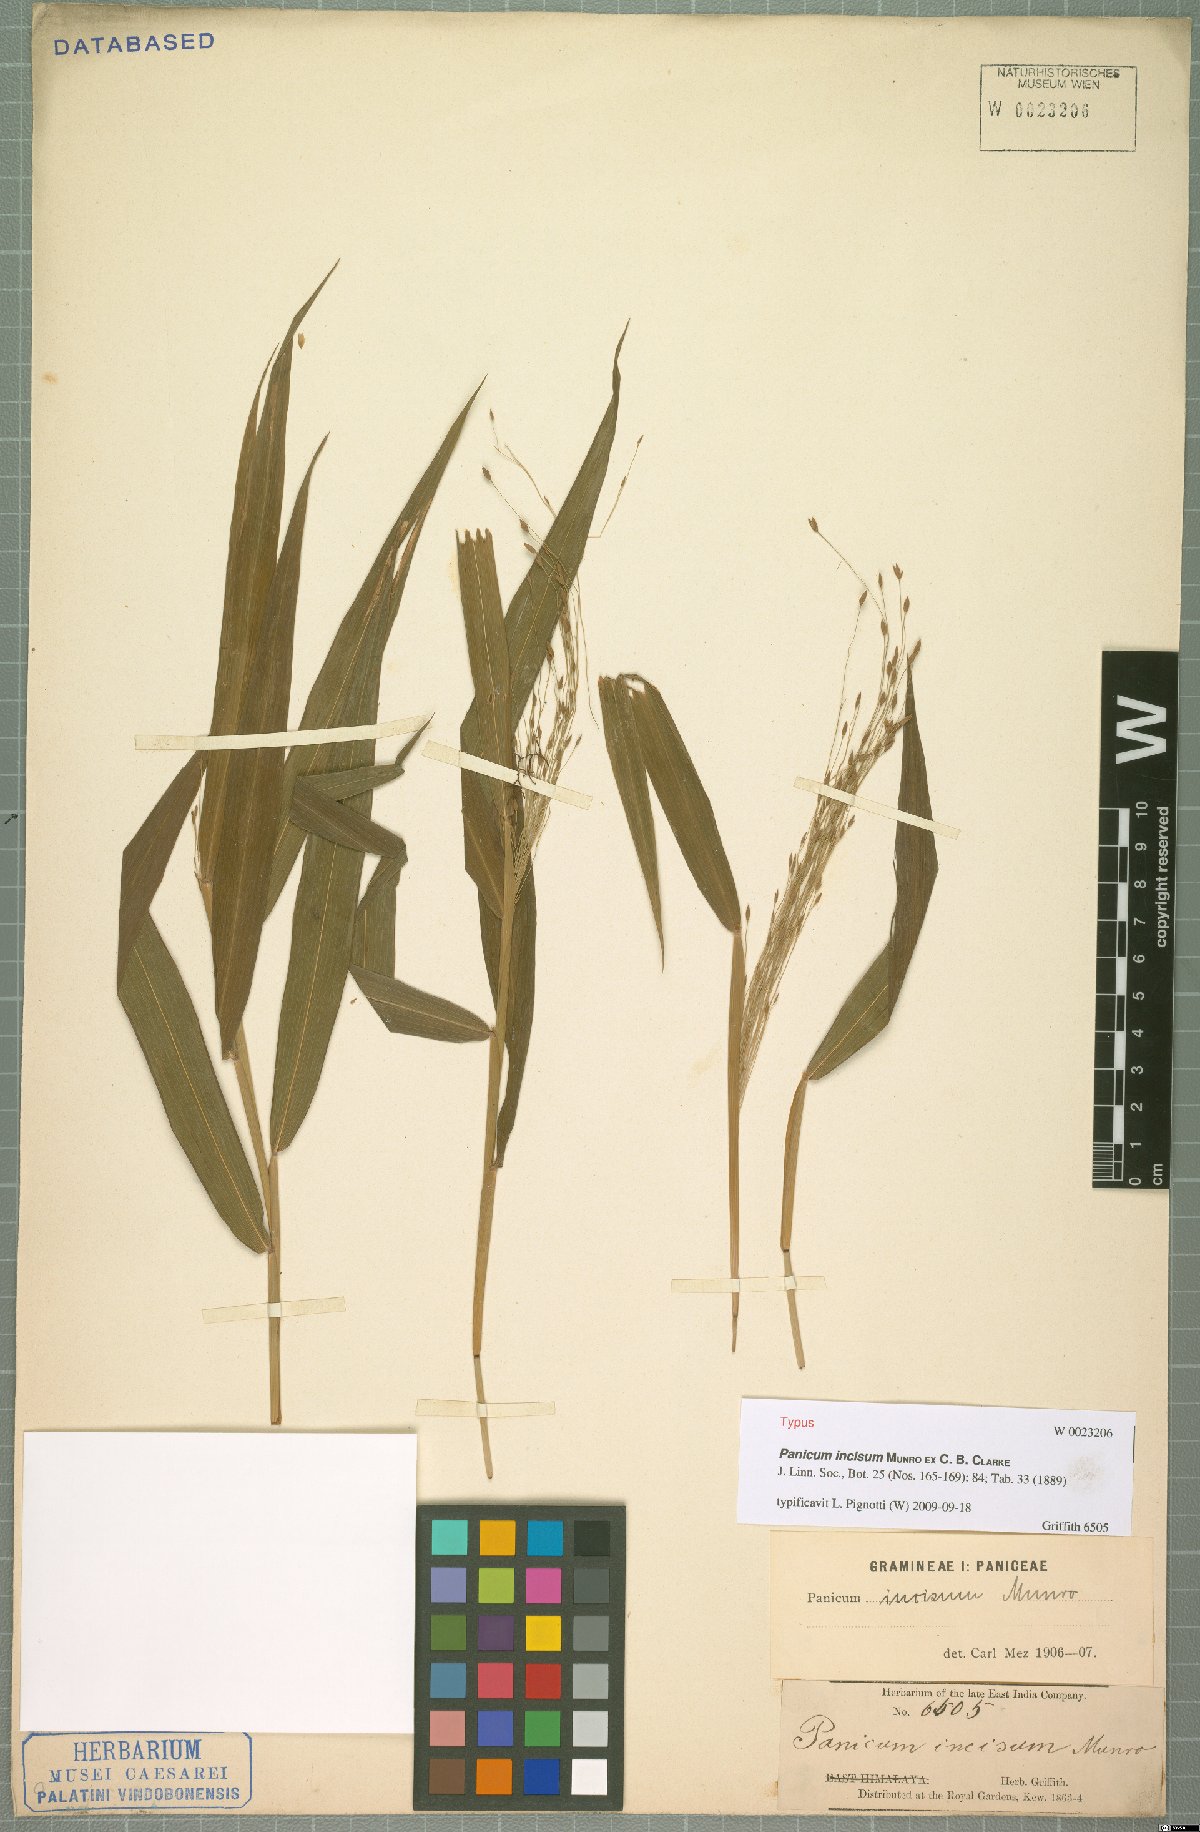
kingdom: Plantae
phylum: Tracheophyta
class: Liliopsida
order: Poales
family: Poaceae
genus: Panicum
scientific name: Panicum incisum
